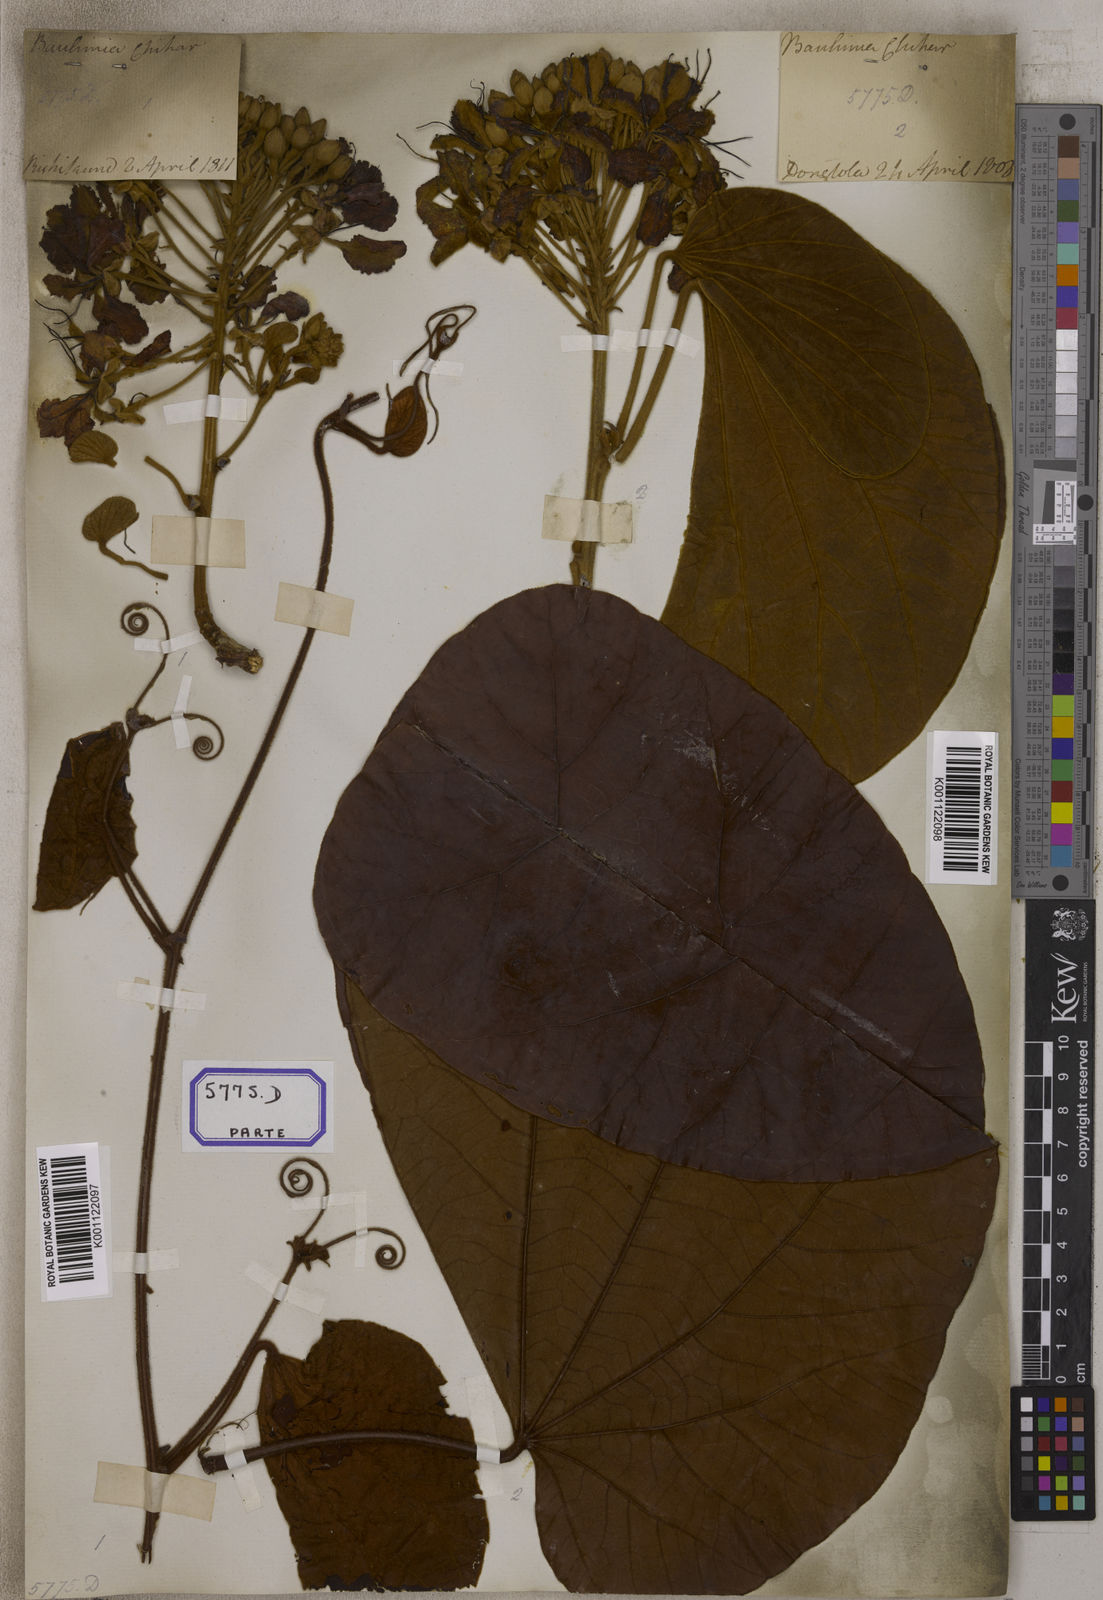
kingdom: Plantae
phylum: Tracheophyta
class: Magnoliopsida
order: Fabales
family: Fabaceae
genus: Bauhinia
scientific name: Bauhinia
